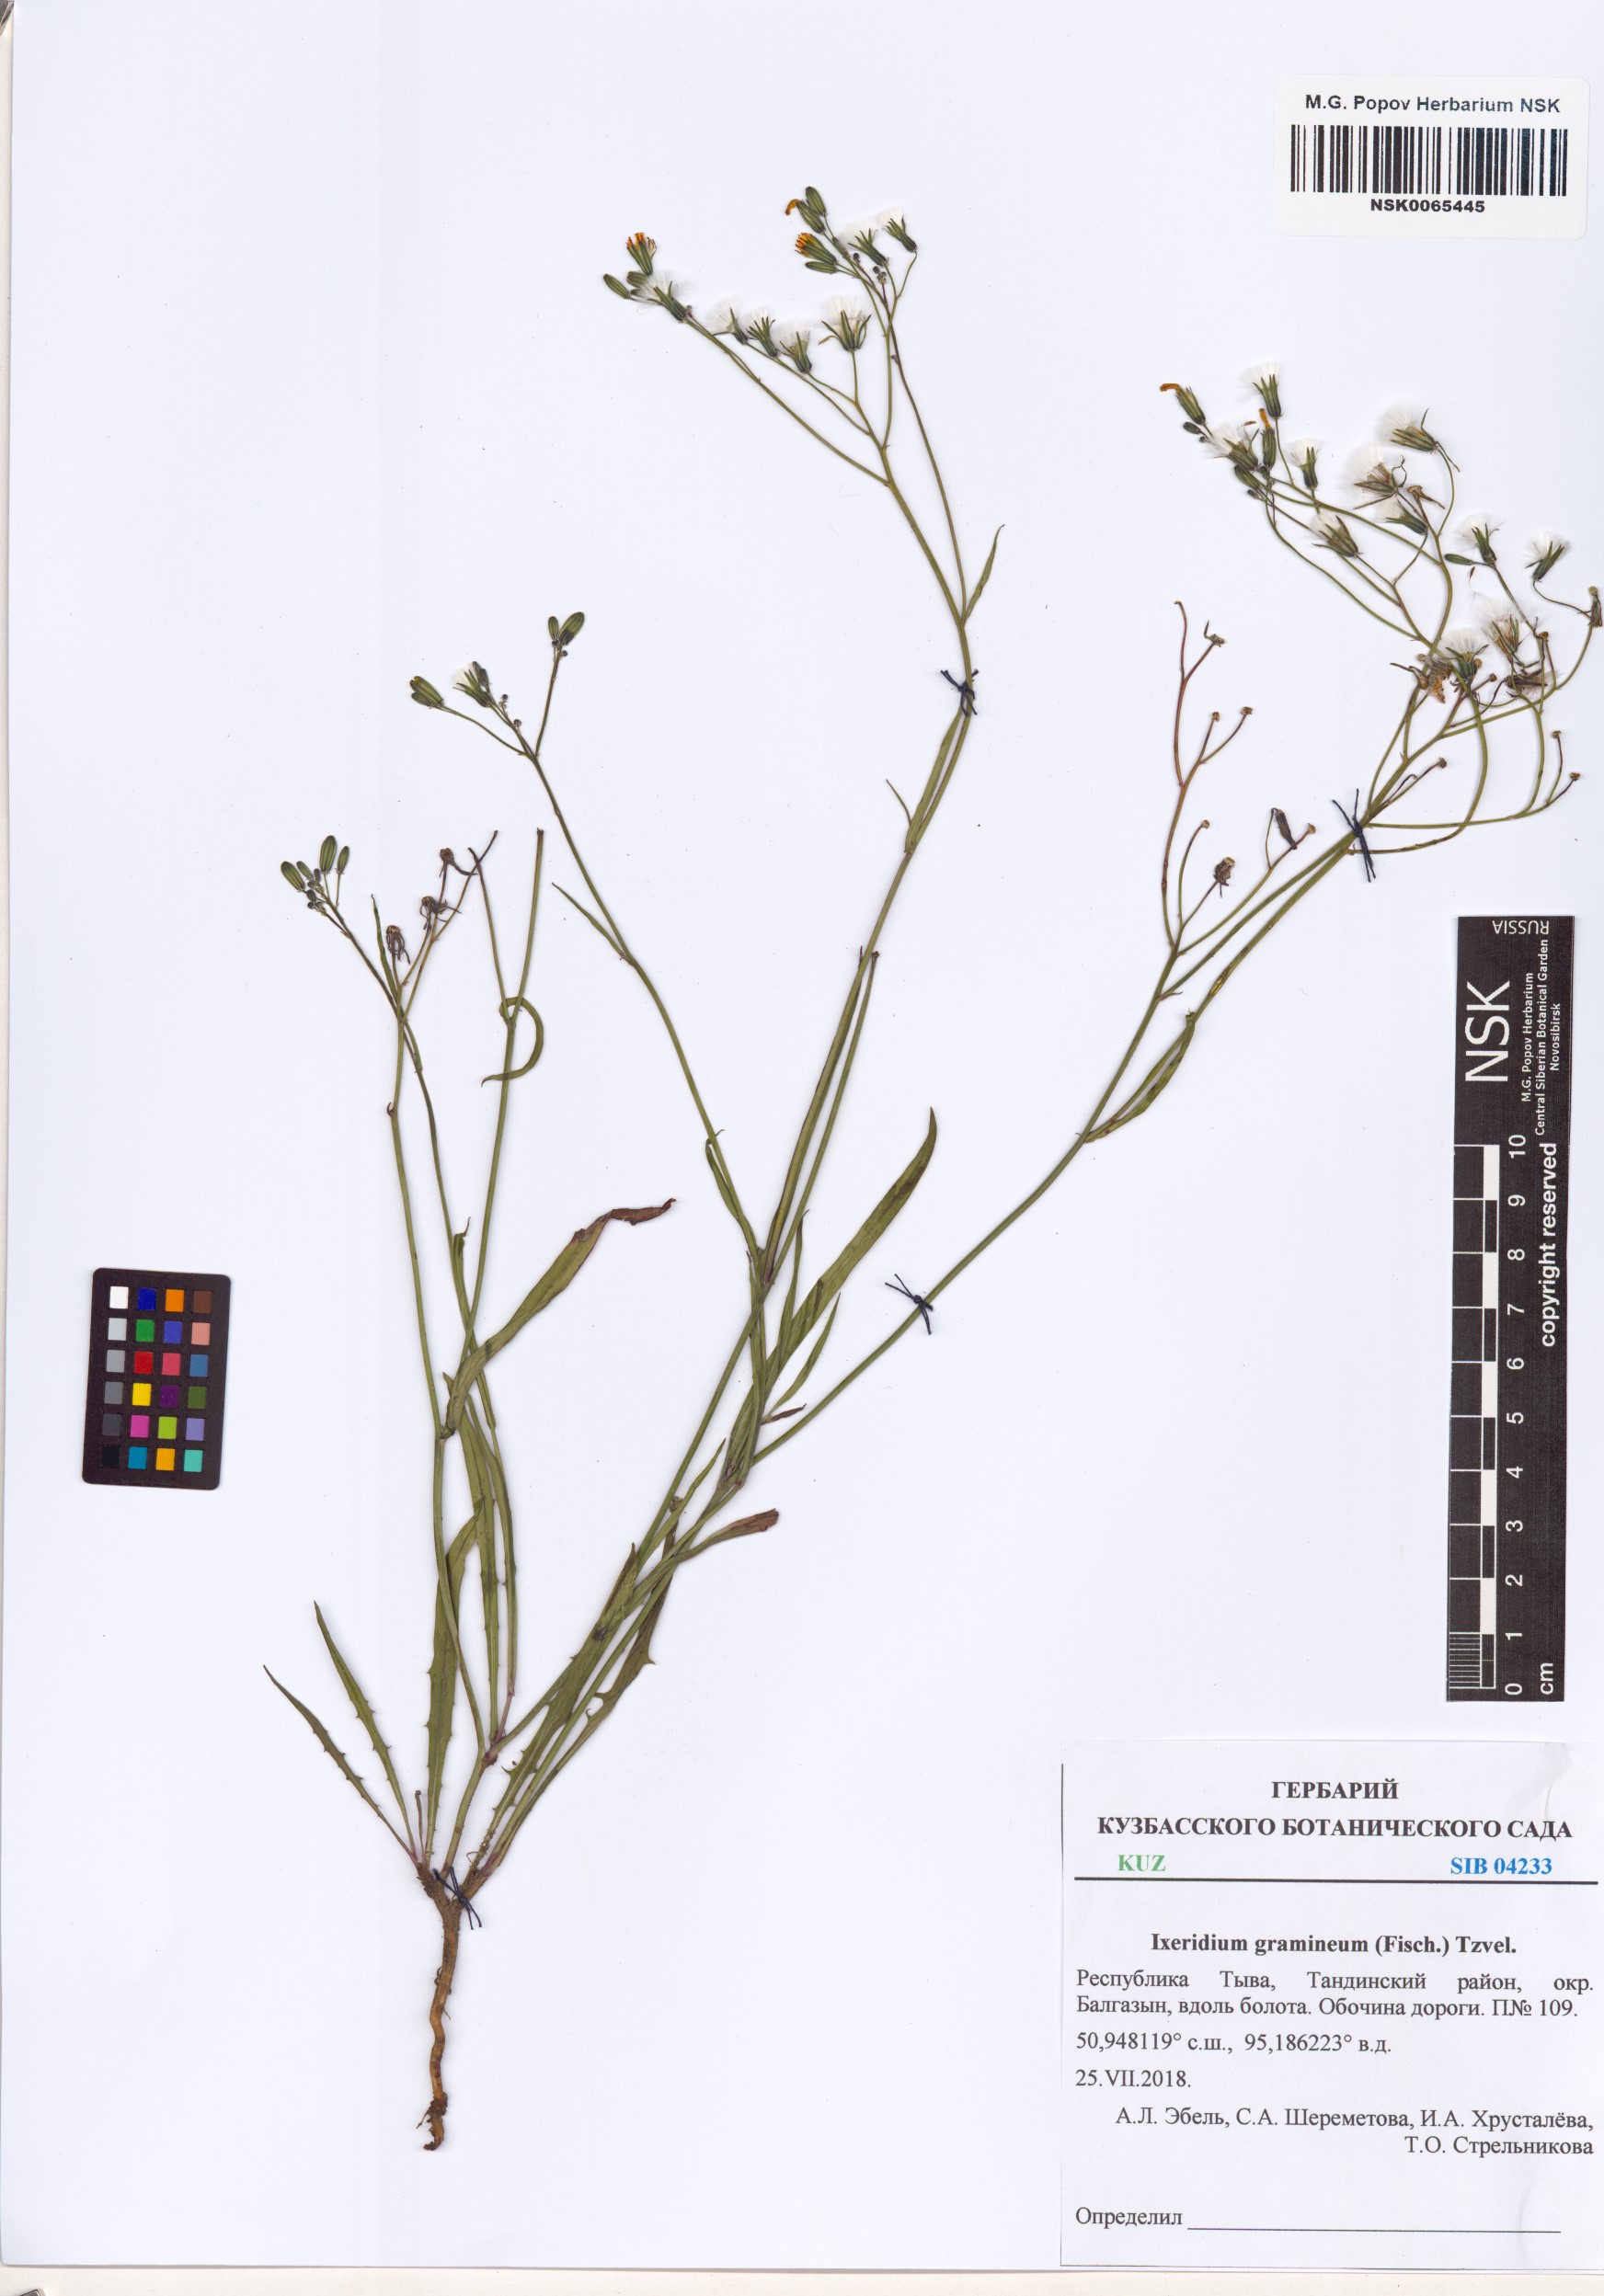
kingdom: Plantae
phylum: Tracheophyta
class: Magnoliopsida
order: Asterales
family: Asteraceae
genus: Ixeris
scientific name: Ixeris chinensis
